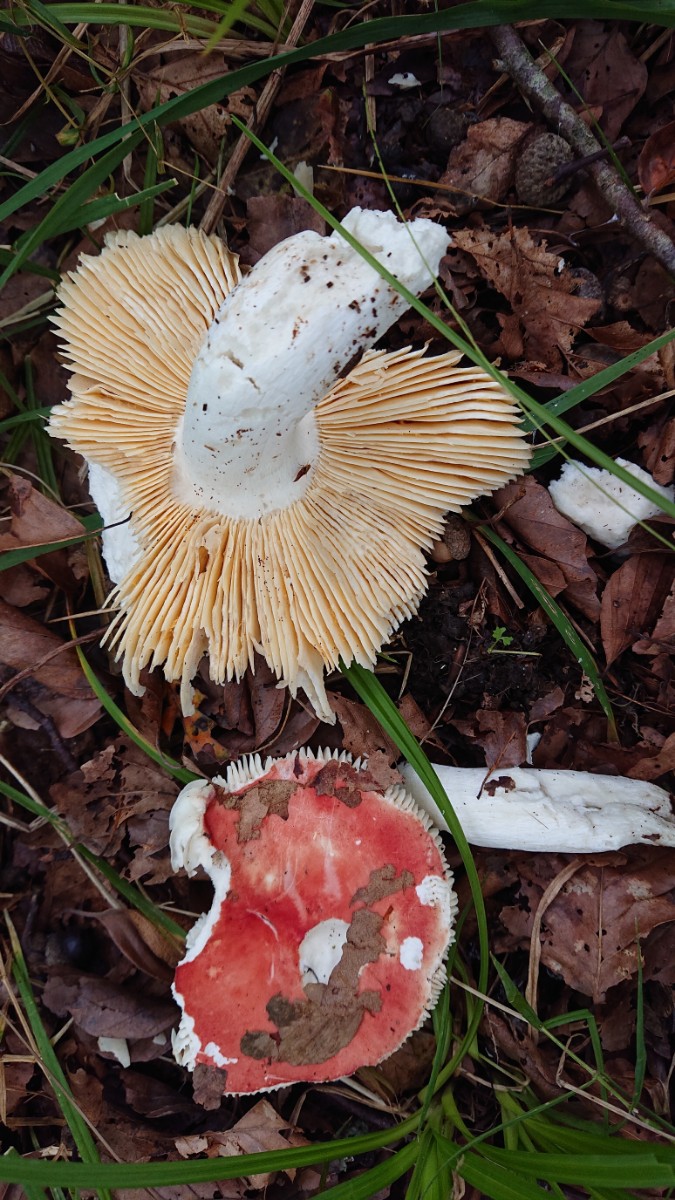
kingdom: Fungi
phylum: Basidiomycota
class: Agaricomycetes
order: Russulales
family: Russulaceae
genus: Russula
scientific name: Russula pseudointegra
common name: cinnoberrød skørhat
